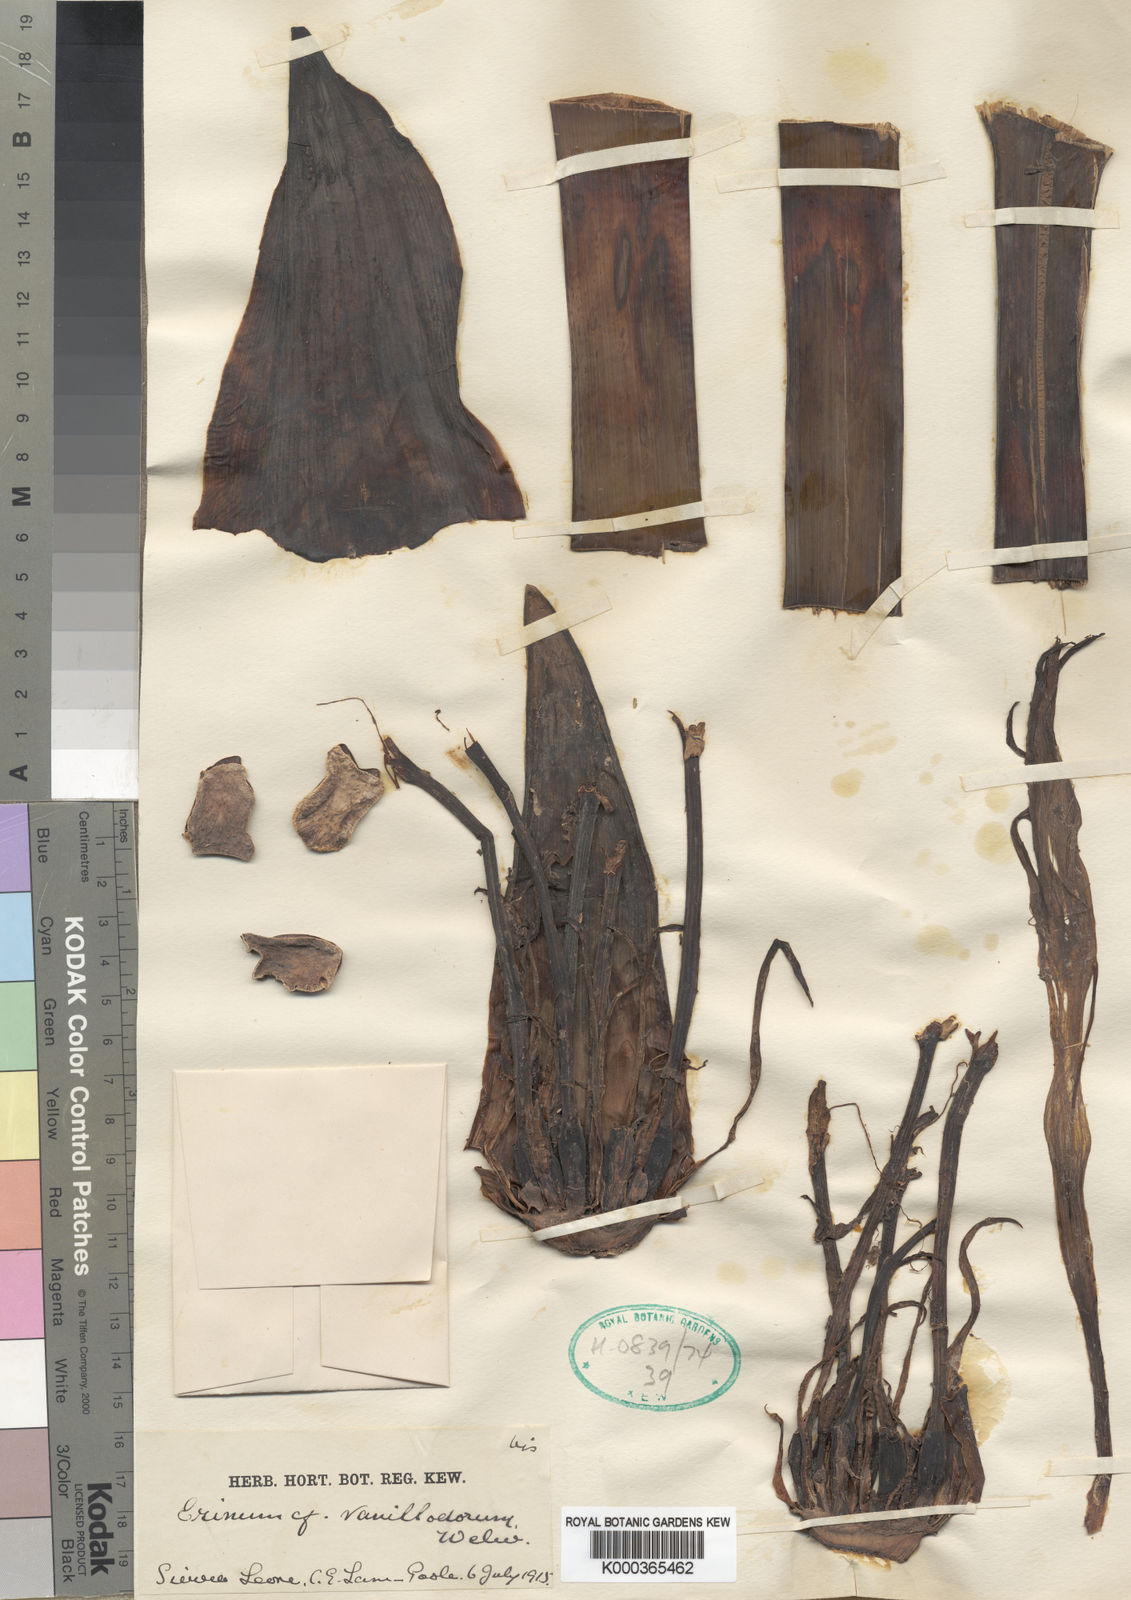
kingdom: Plantae
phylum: Tracheophyta
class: Liliopsida
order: Asparagales
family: Amaryllidaceae
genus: Crinum
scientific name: Crinum glaucum
